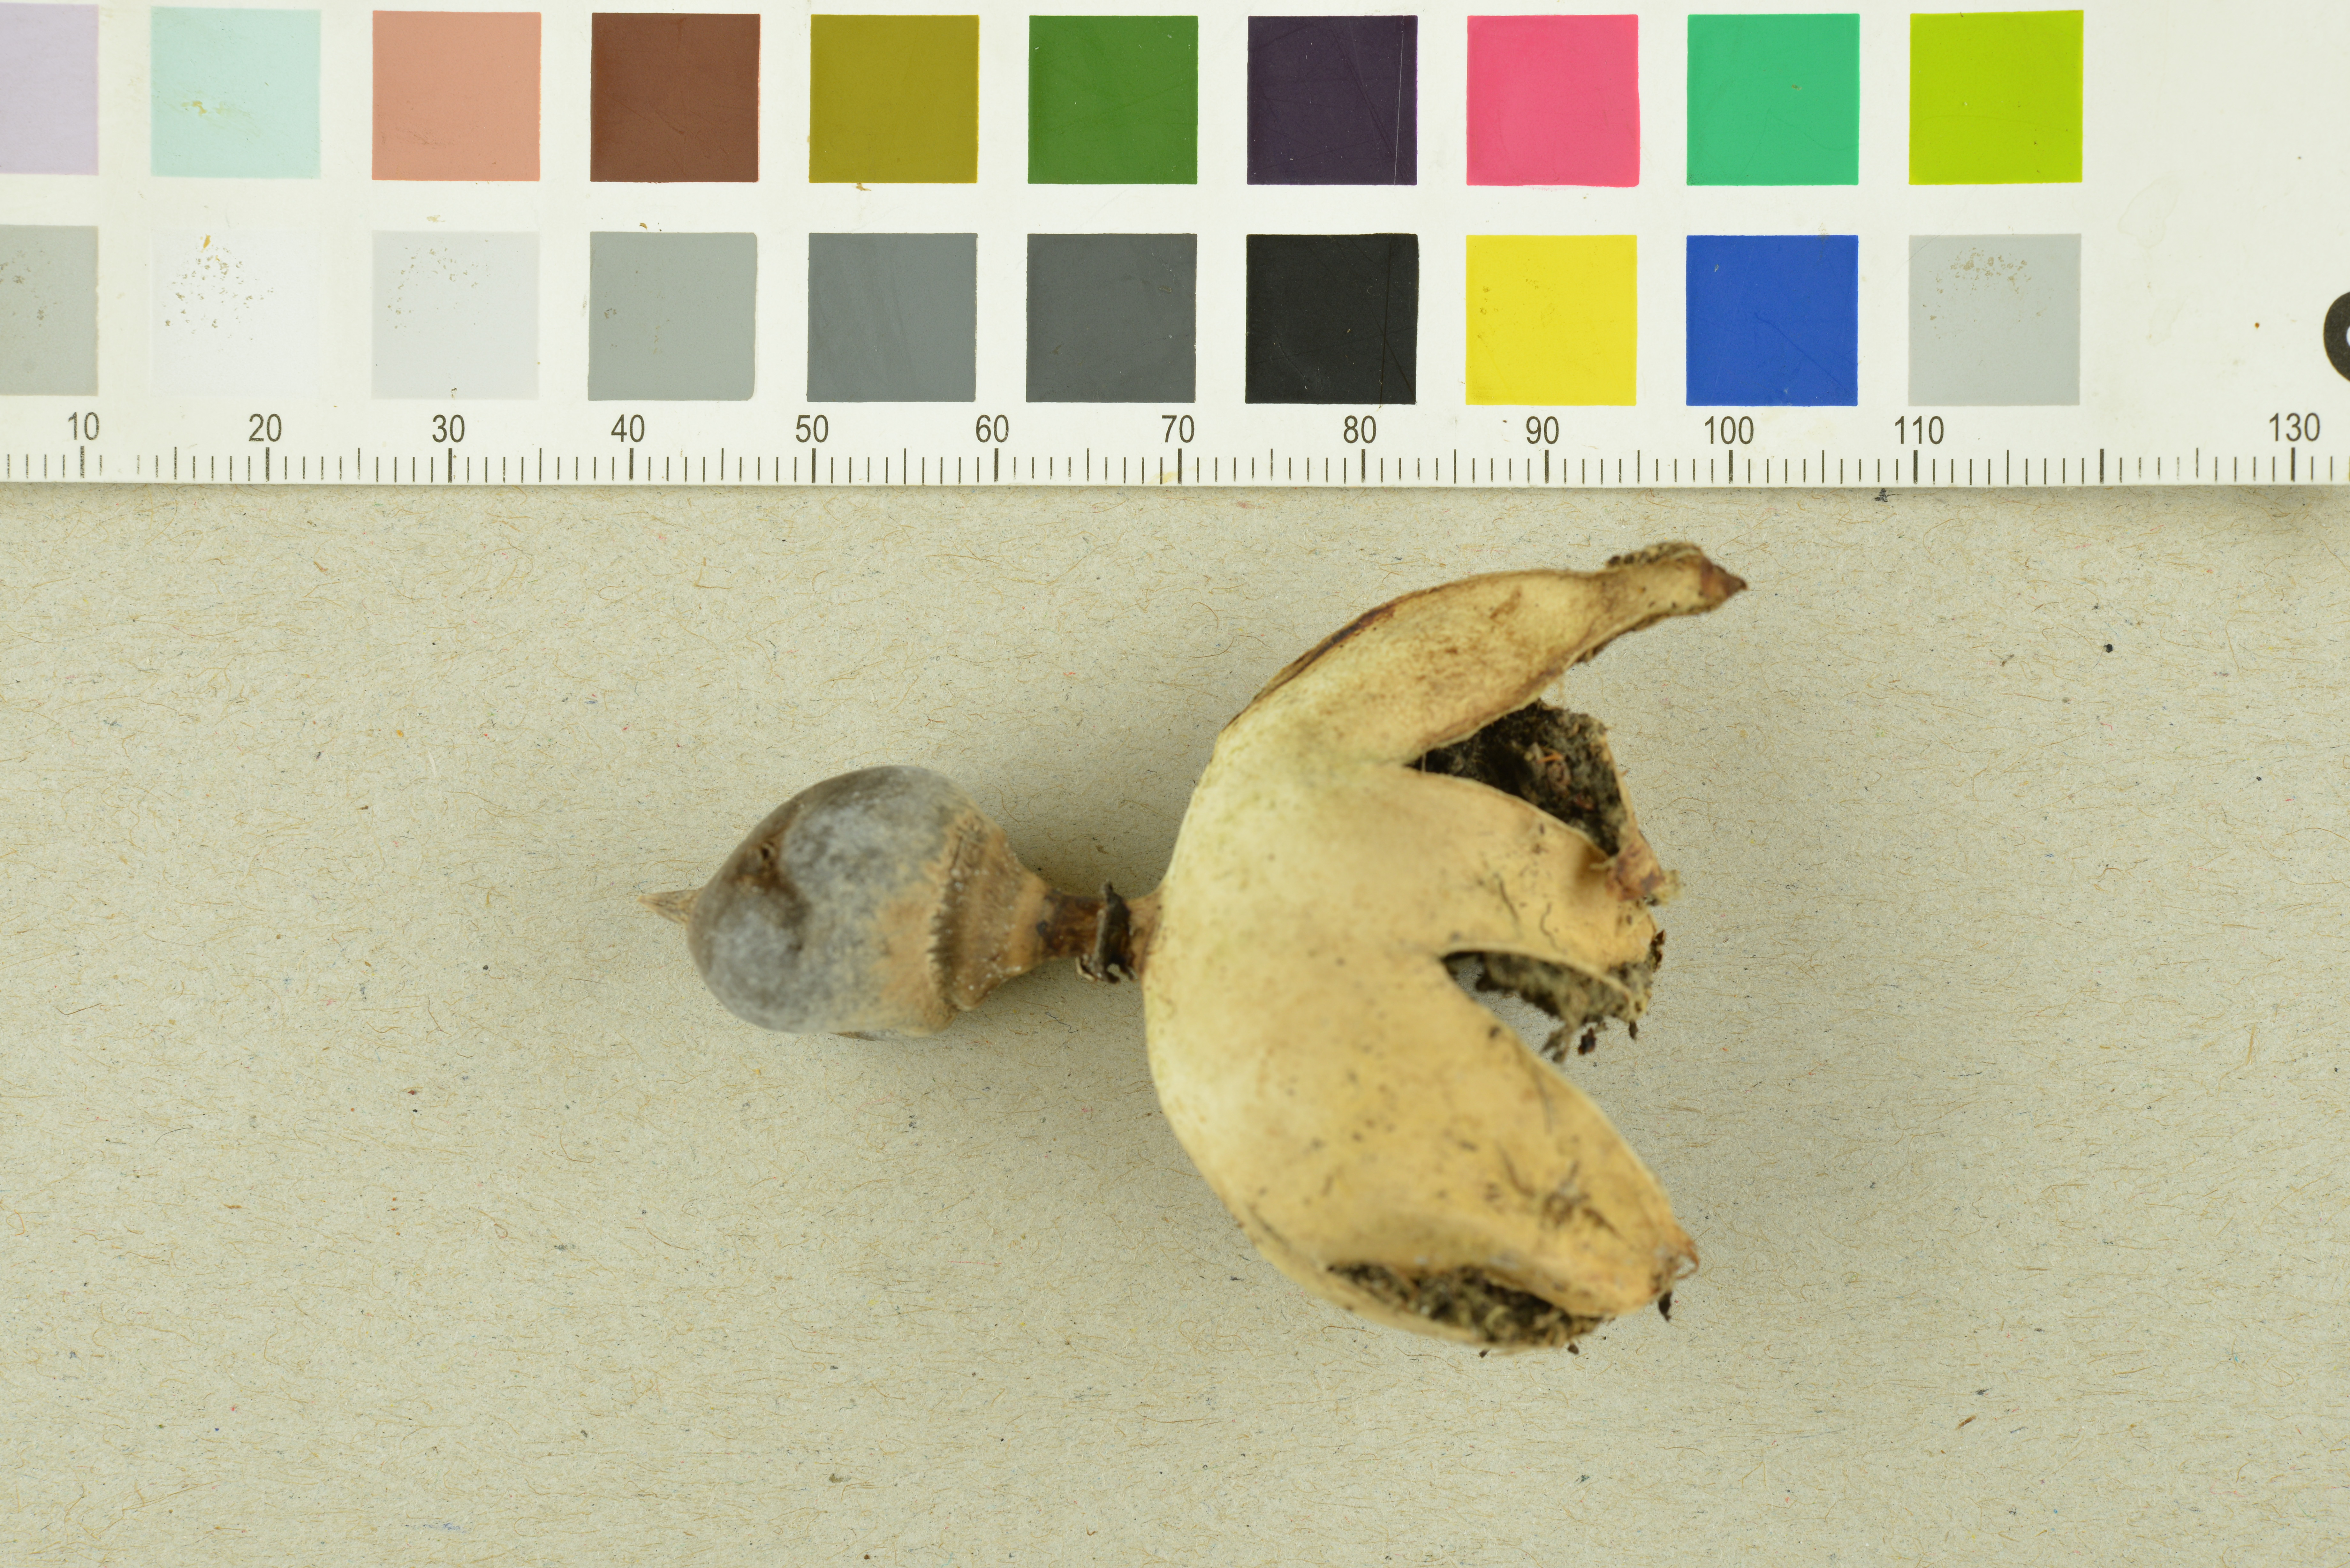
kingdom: Fungi
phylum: Basidiomycota
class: Agaricomycetes
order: Geastrales
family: Geastraceae
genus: Geastrum
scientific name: Geastrum pectinatum
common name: Beaked earthstar
